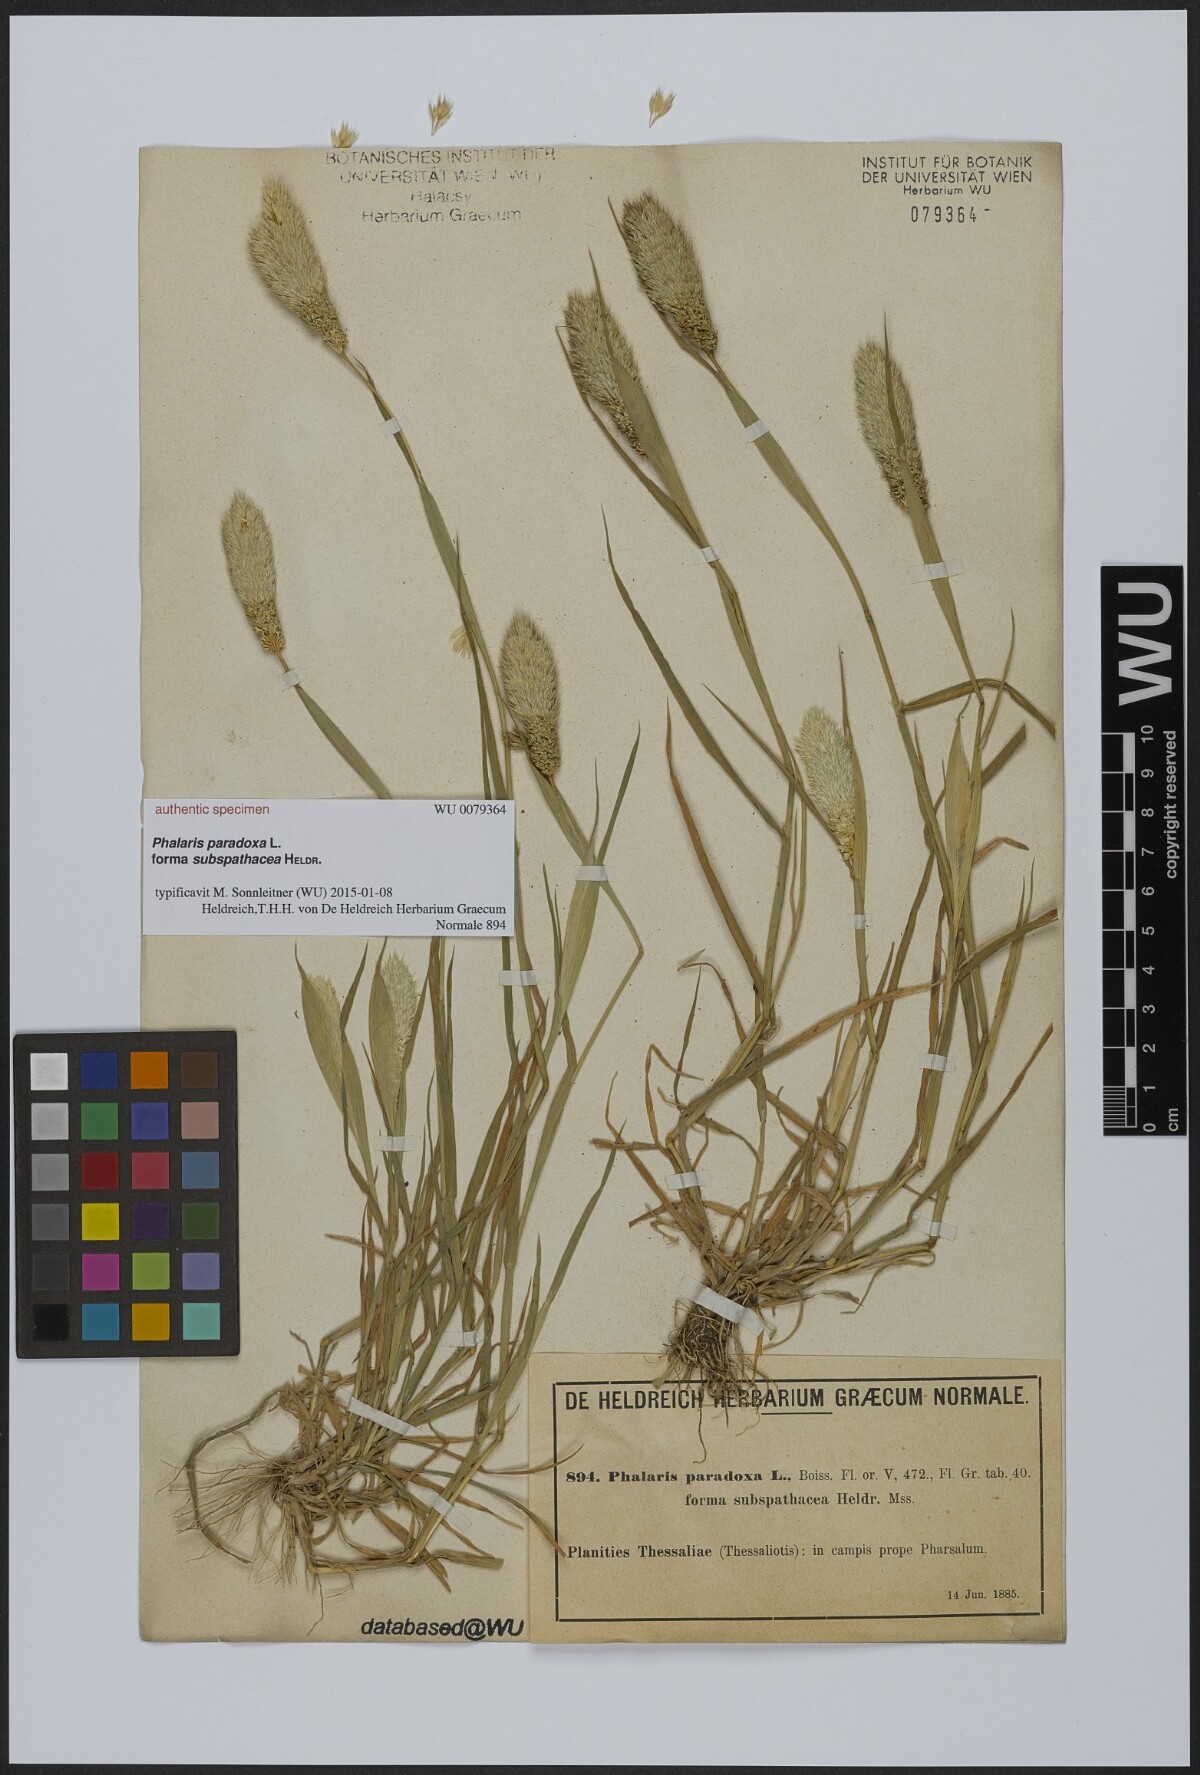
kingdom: Plantae
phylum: Tracheophyta
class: Liliopsida
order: Poales
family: Poaceae
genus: Phalaris
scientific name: Phalaris paradoxa
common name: Awned canary-grass
